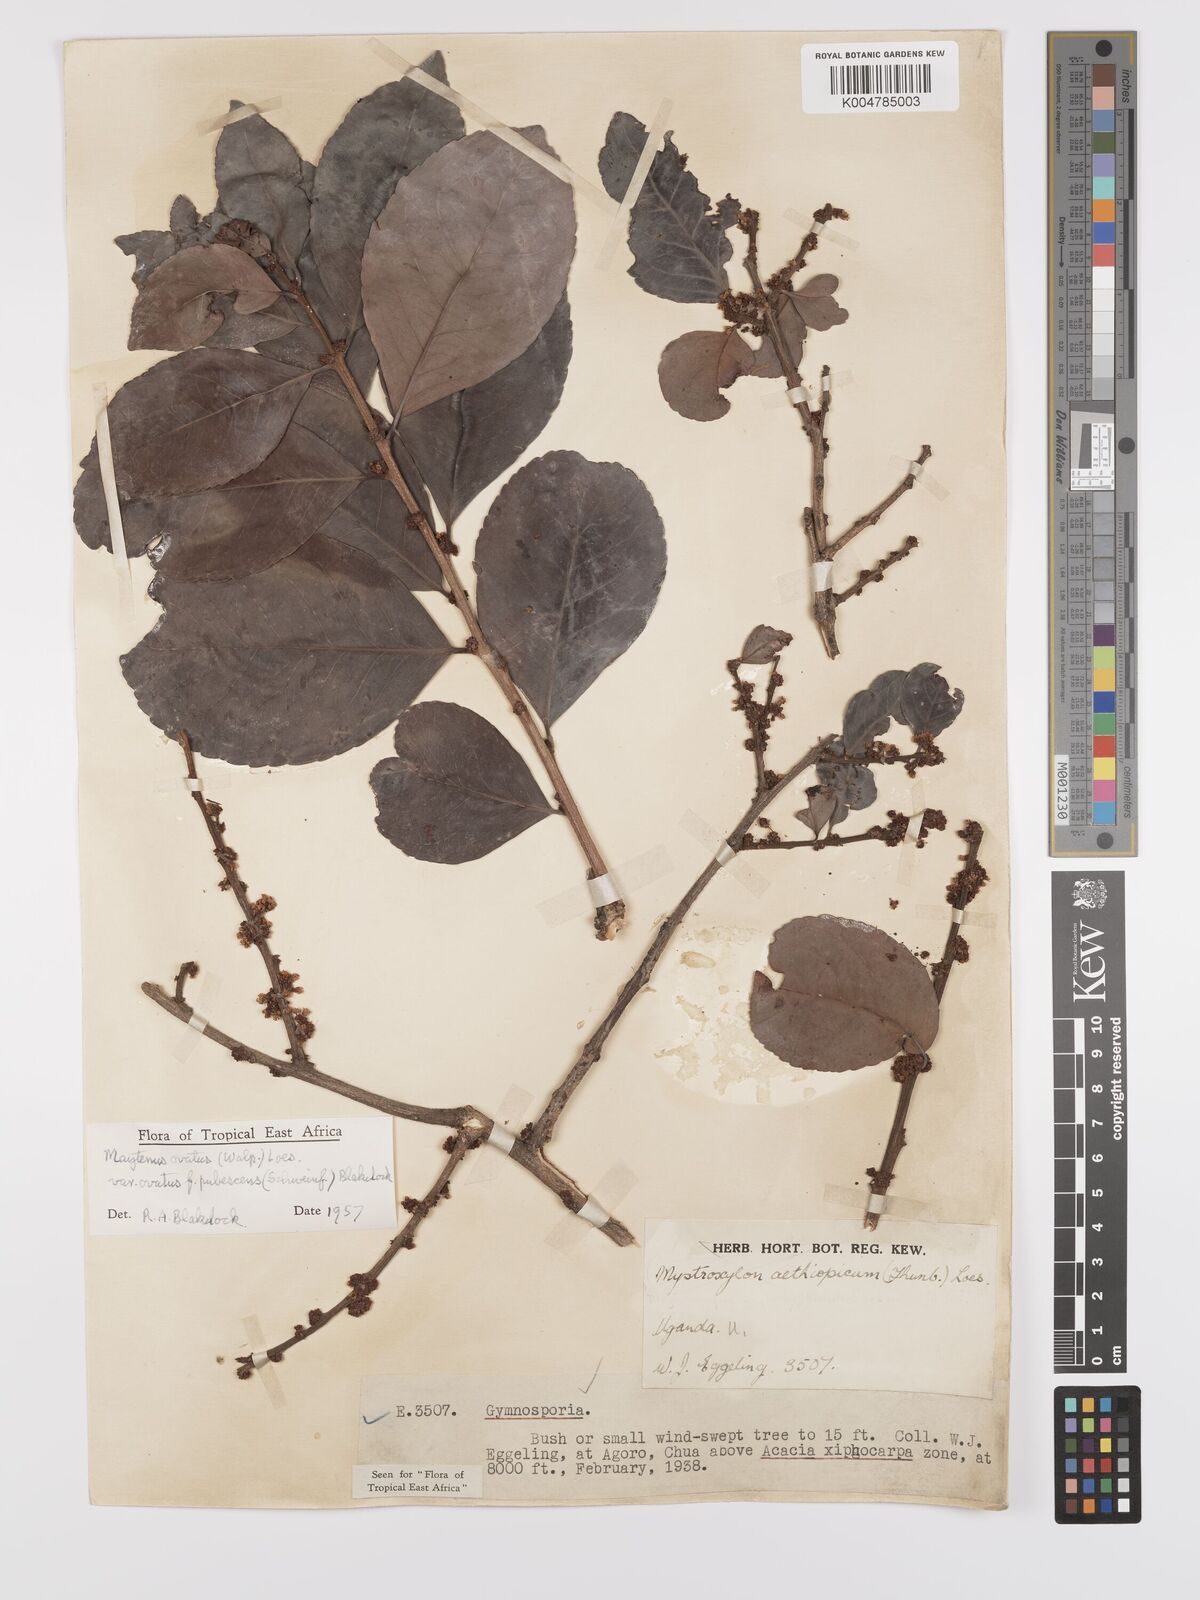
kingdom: Plantae
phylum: Tracheophyta
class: Magnoliopsida
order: Celastrales
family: Celastraceae
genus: Gymnosporia
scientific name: Gymnosporia buchananii
